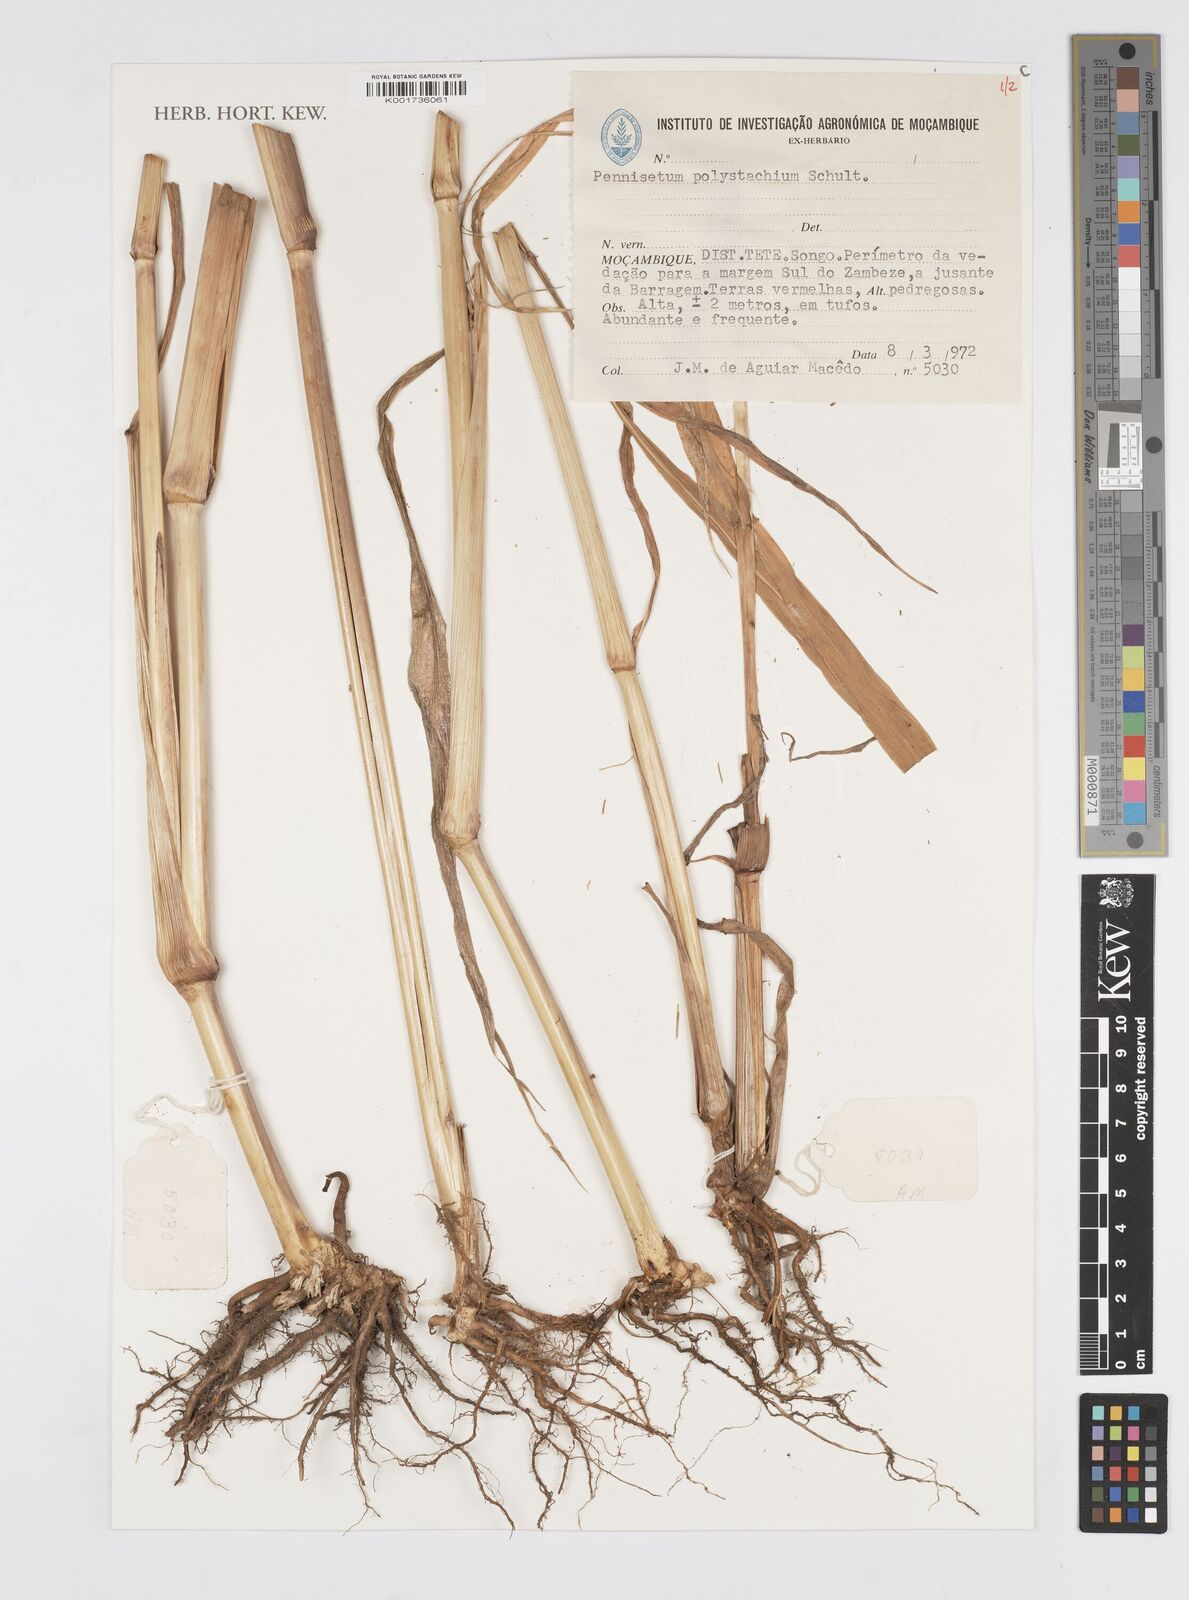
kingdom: Plantae
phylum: Tracheophyta
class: Liliopsida
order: Poales
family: Poaceae
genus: Setaria
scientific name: Setaria parviflora
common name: Knotroot bristle-grass
